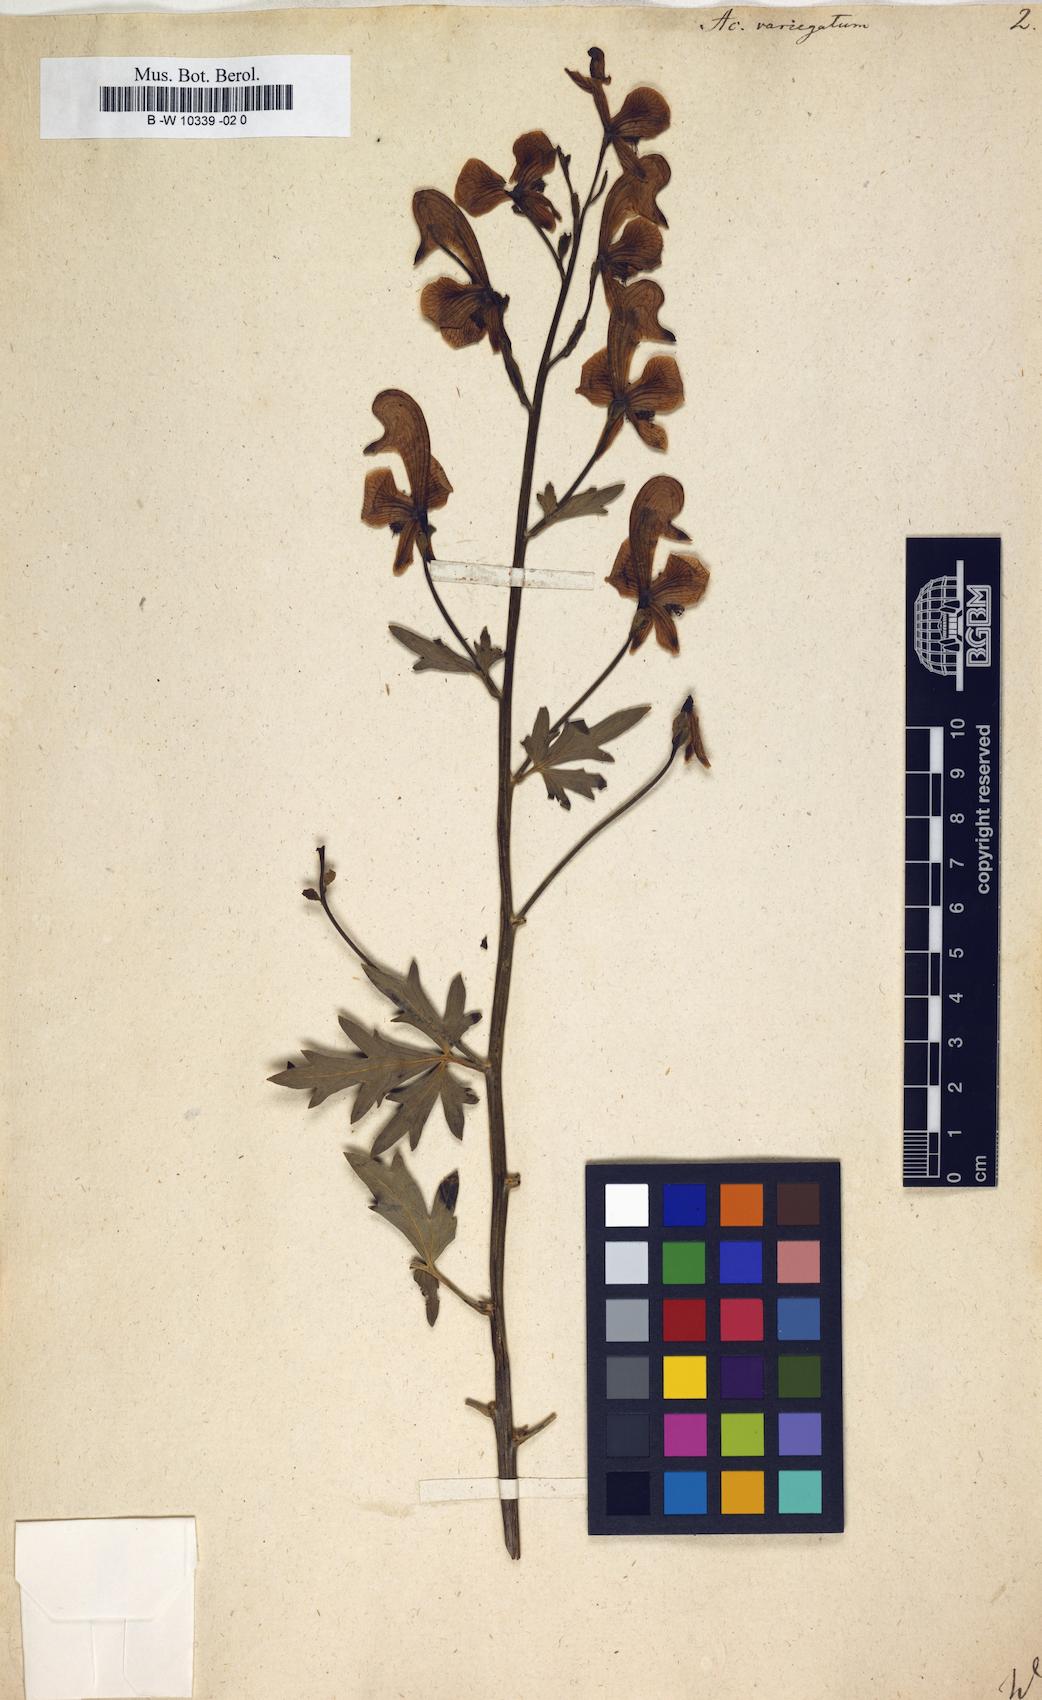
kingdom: Plantae
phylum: Tracheophyta
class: Magnoliopsida
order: Ranunculales
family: Ranunculaceae
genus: Aconitum
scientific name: Aconitum variegatum
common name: Manchurian monkshood
